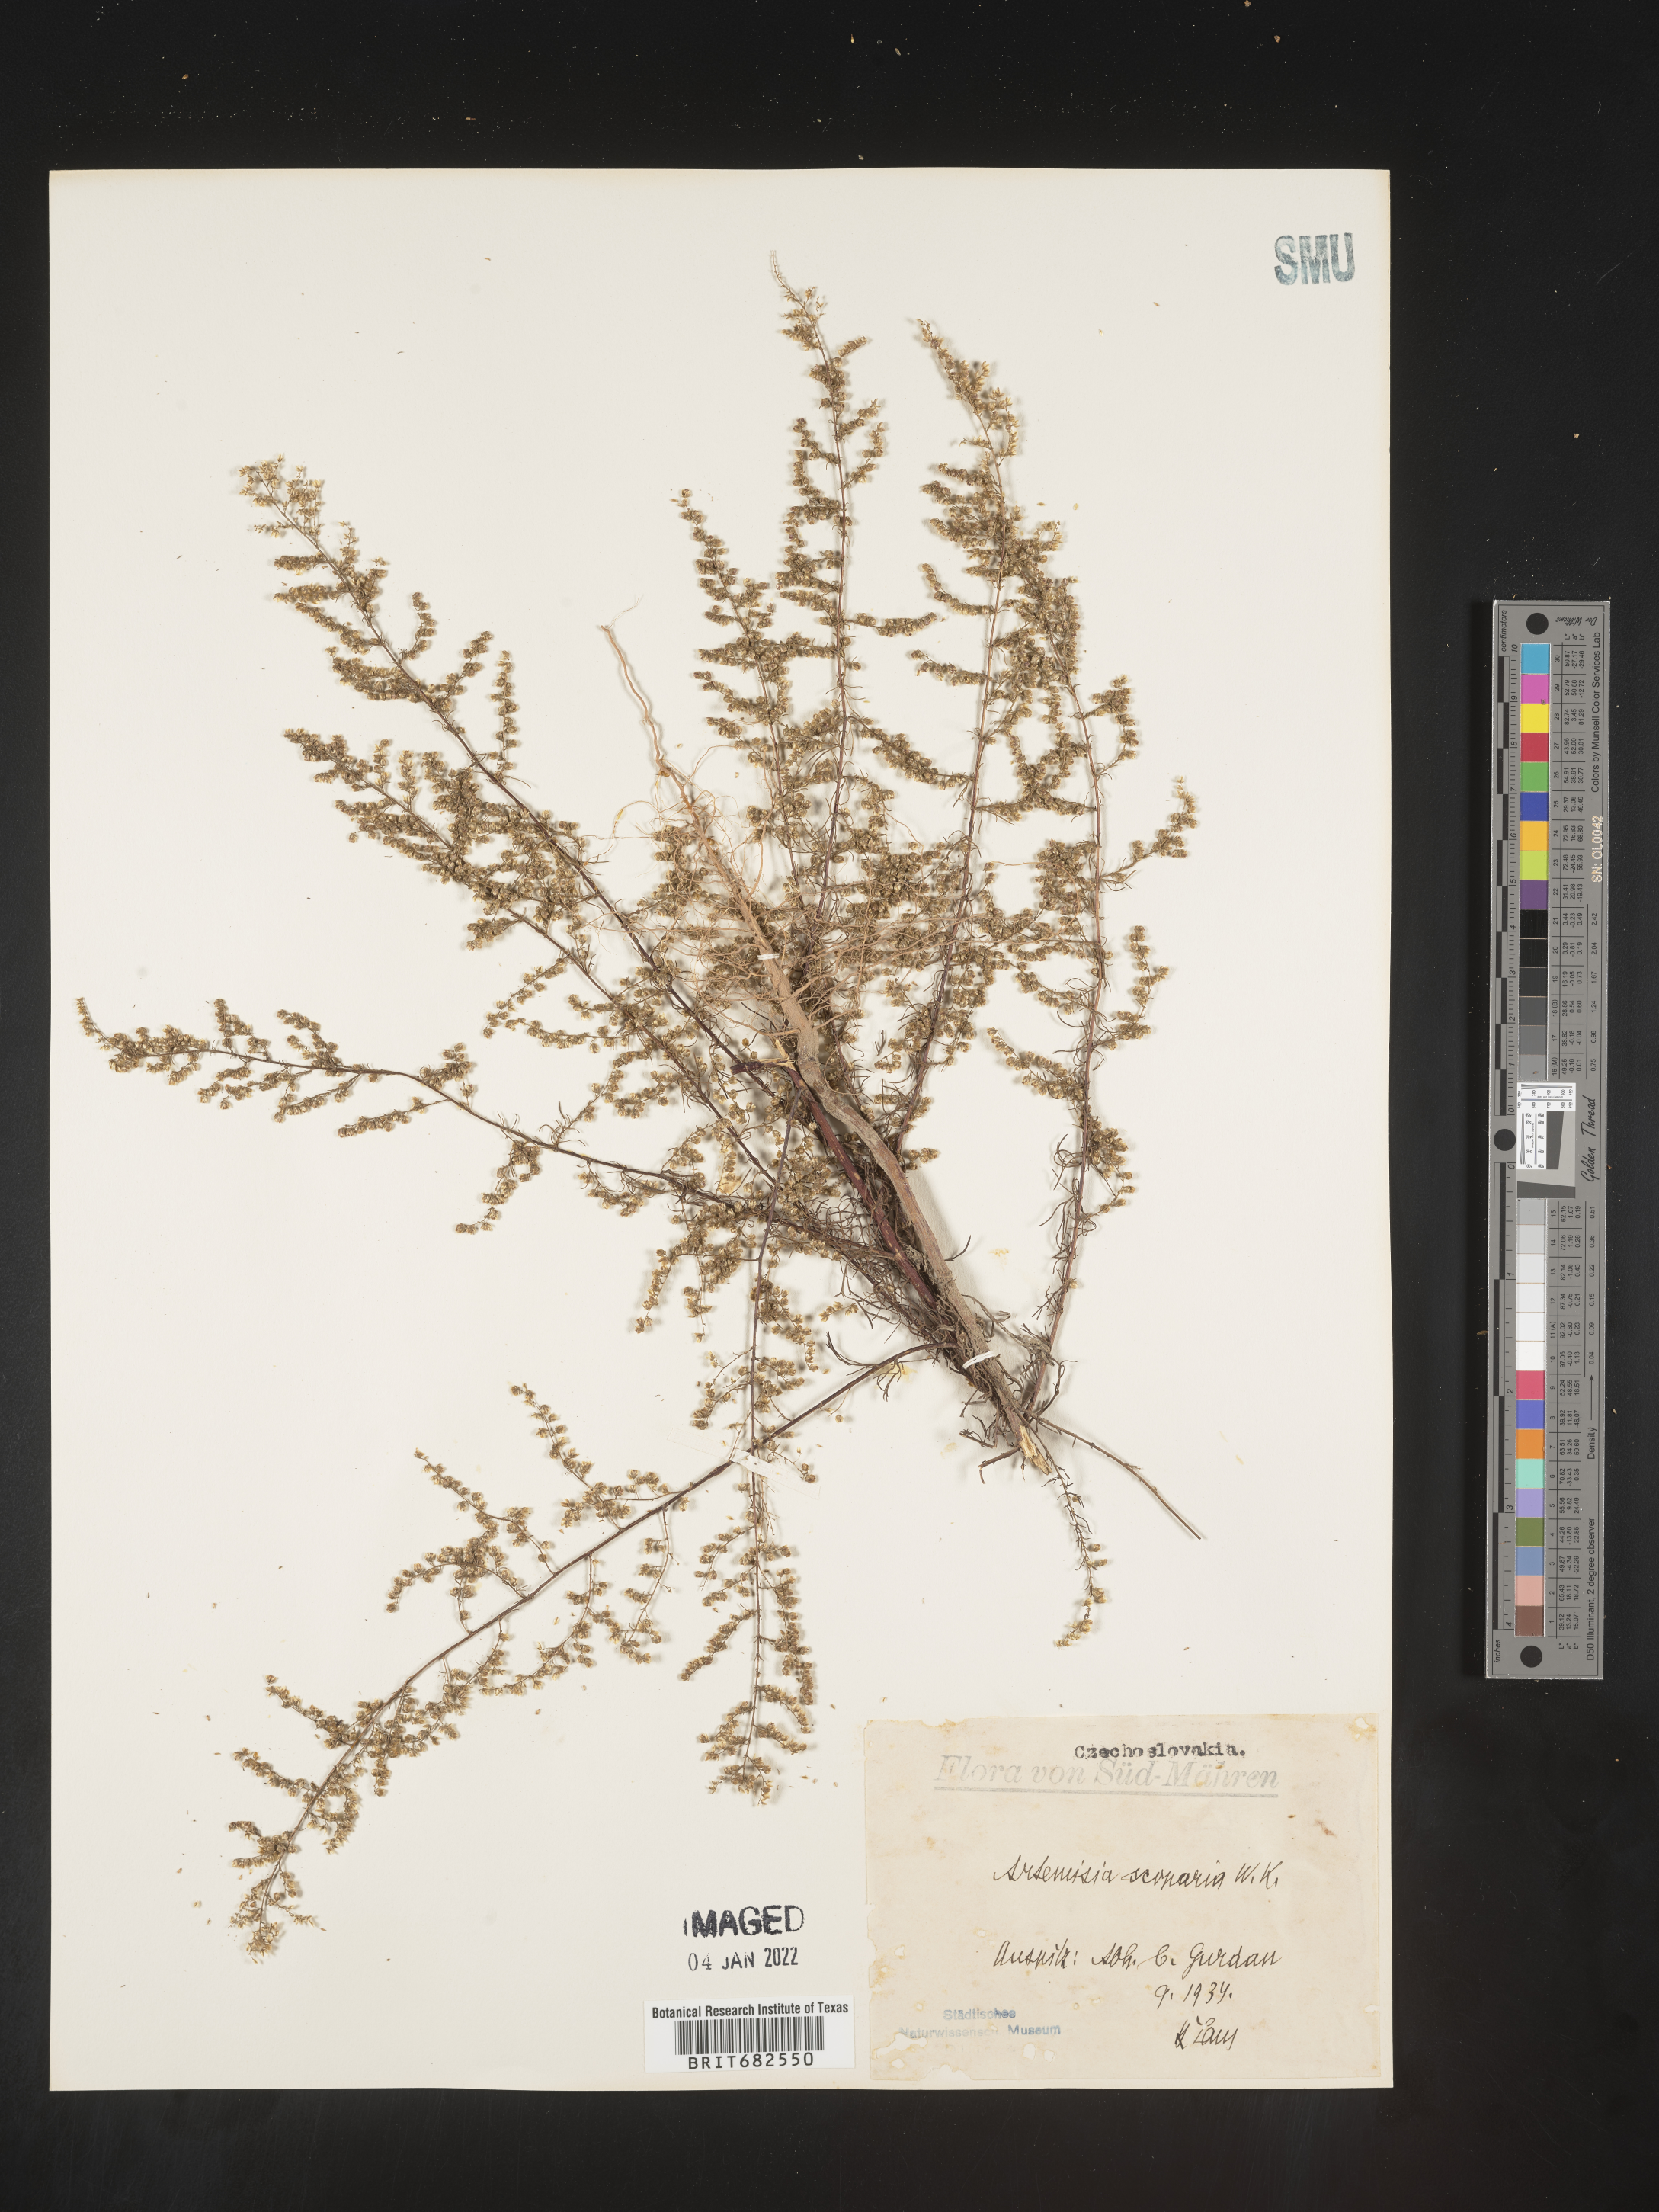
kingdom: Plantae
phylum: Tracheophyta
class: Magnoliopsida
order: Asterales
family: Asteraceae
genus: Artemisia
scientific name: Artemisia
